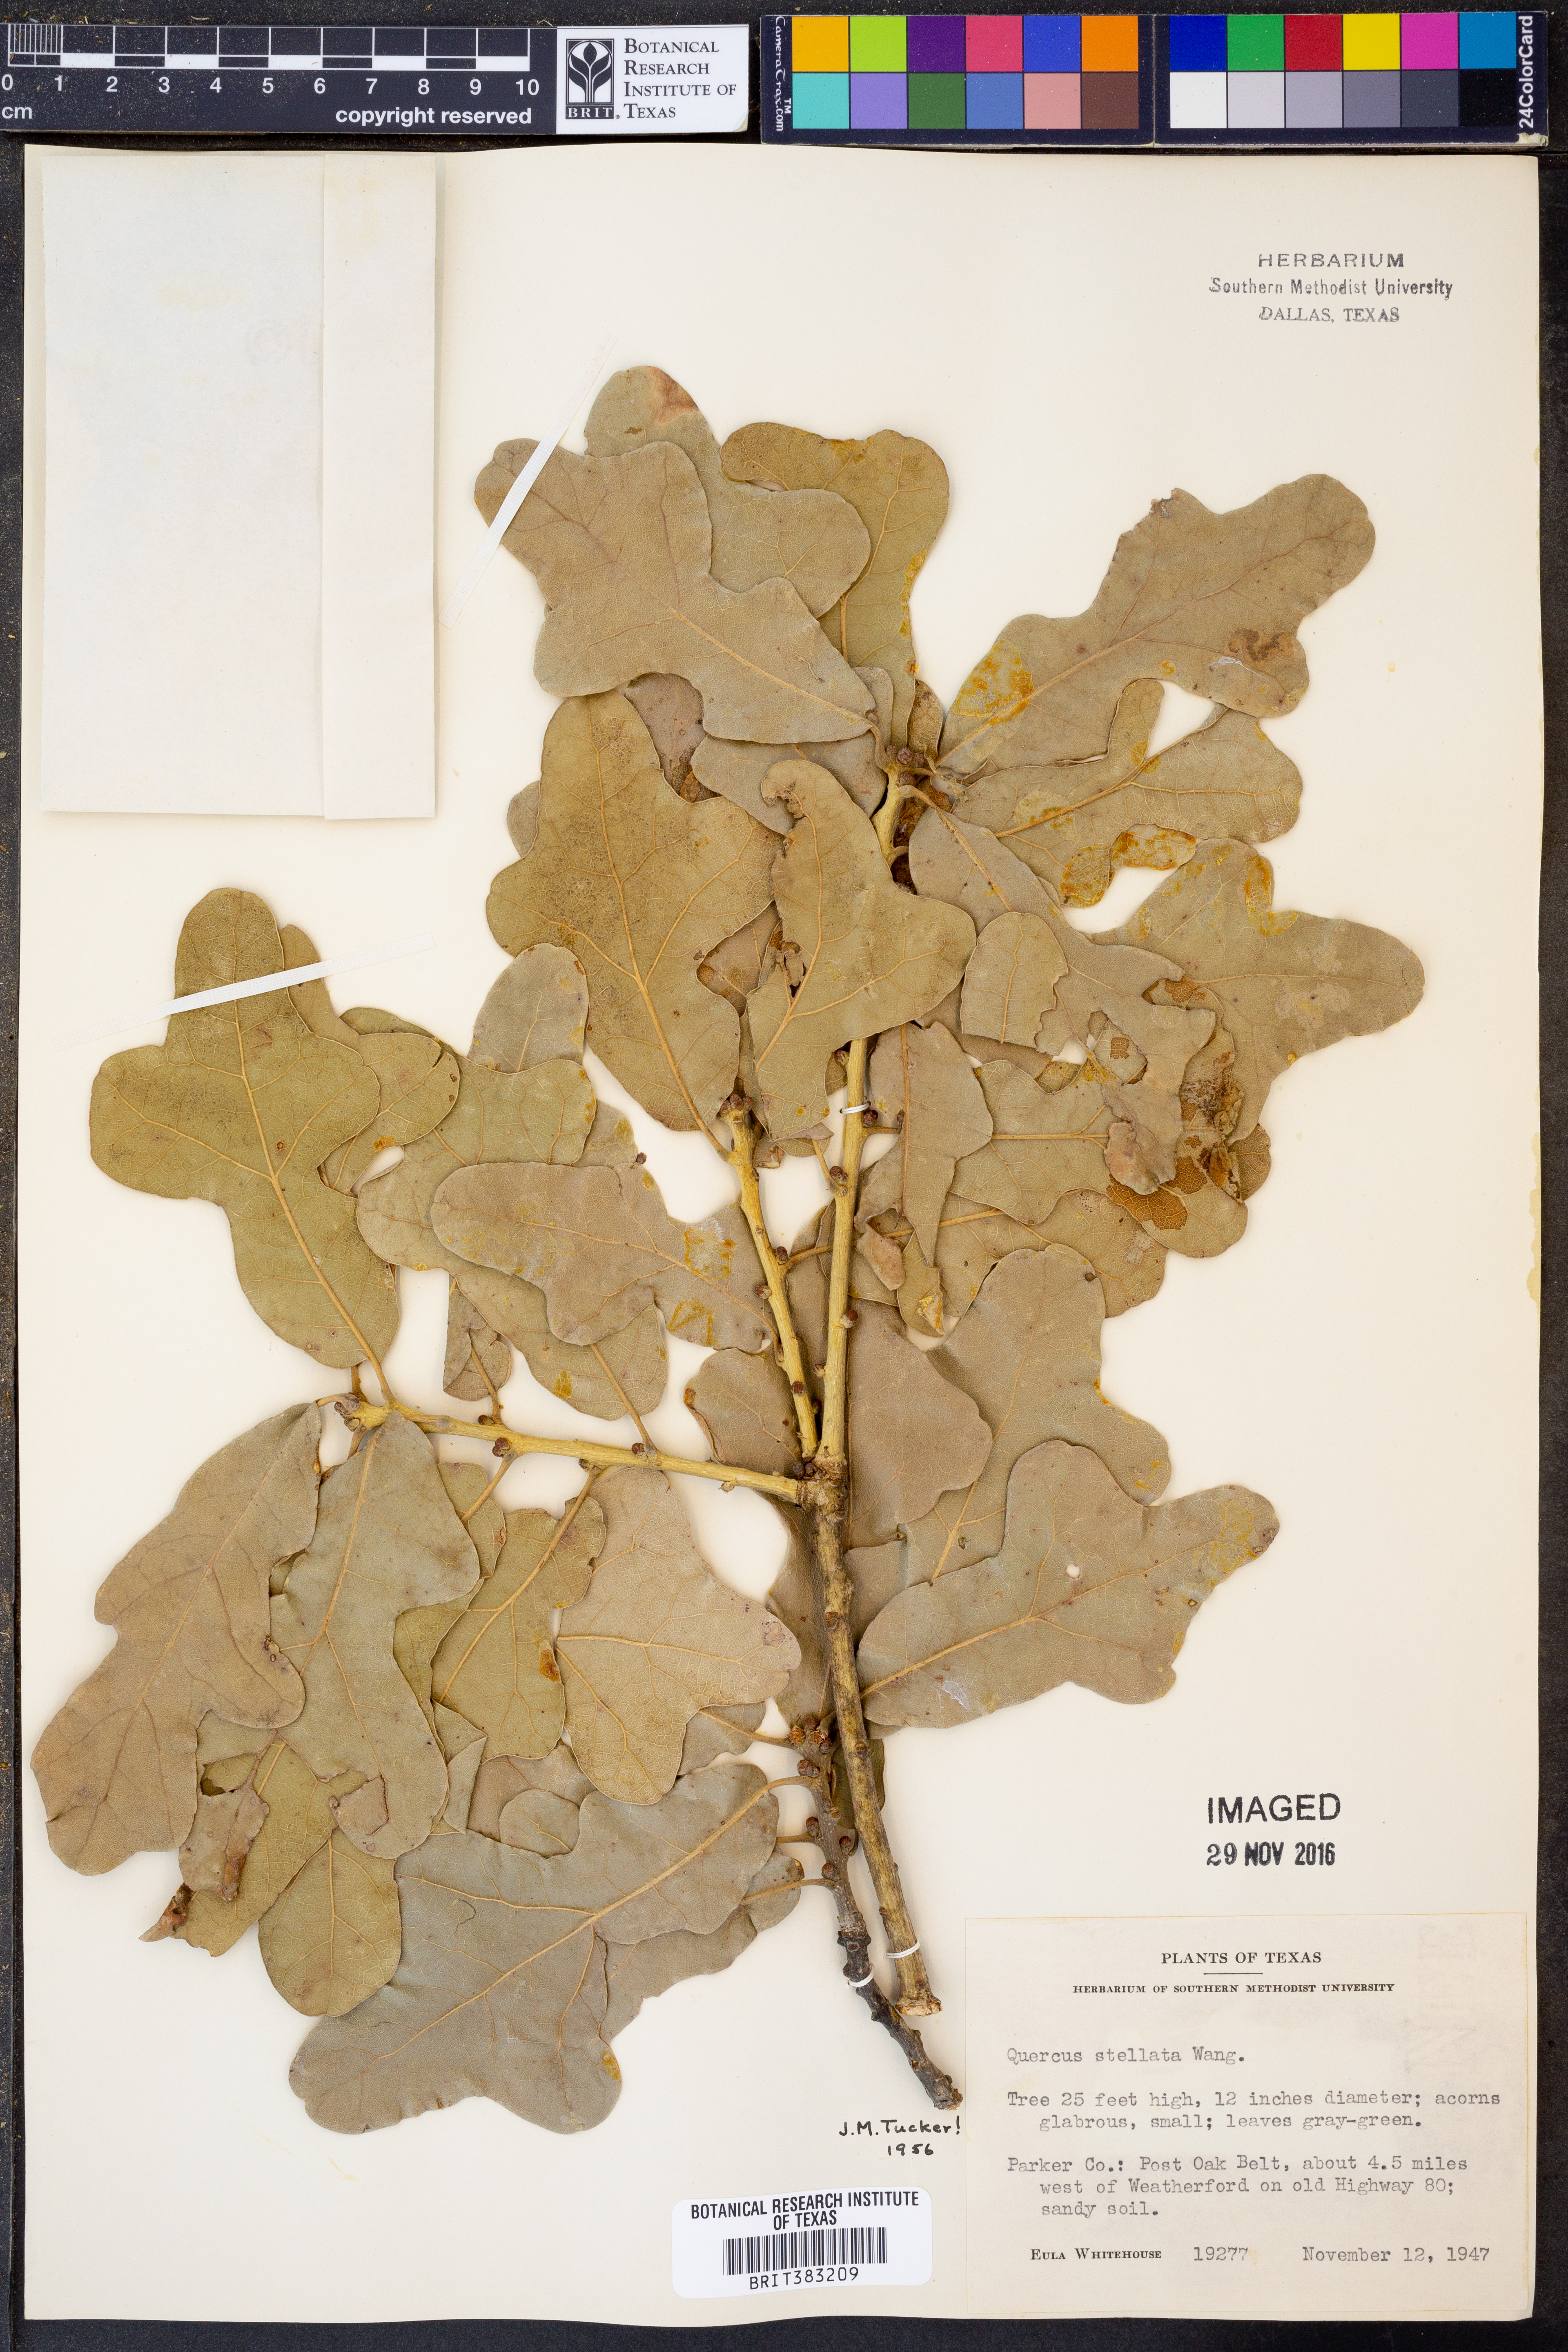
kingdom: Plantae
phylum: Tracheophyta
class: Magnoliopsida
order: Fagales
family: Fagaceae
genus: Quercus
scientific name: Quercus stellata
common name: Post oak
